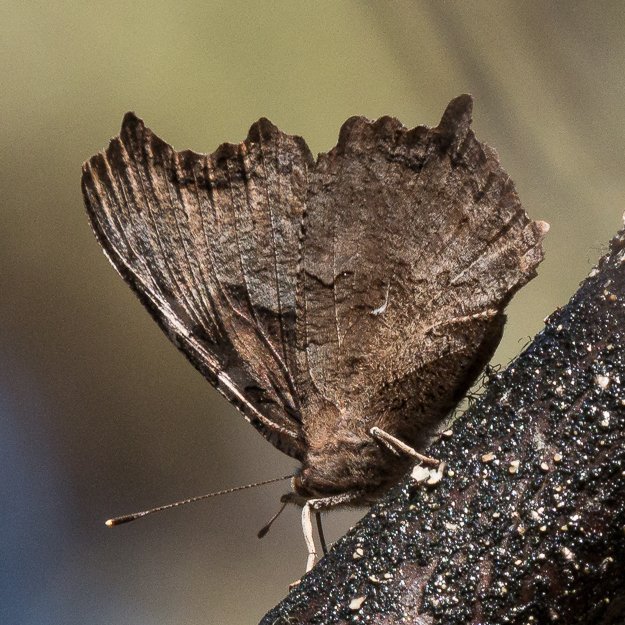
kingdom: Animalia
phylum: Arthropoda
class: Insecta
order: Lepidoptera
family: Nymphalidae
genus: Polygonia
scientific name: Polygonia vaualbum
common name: Compton Tortoiseshell
